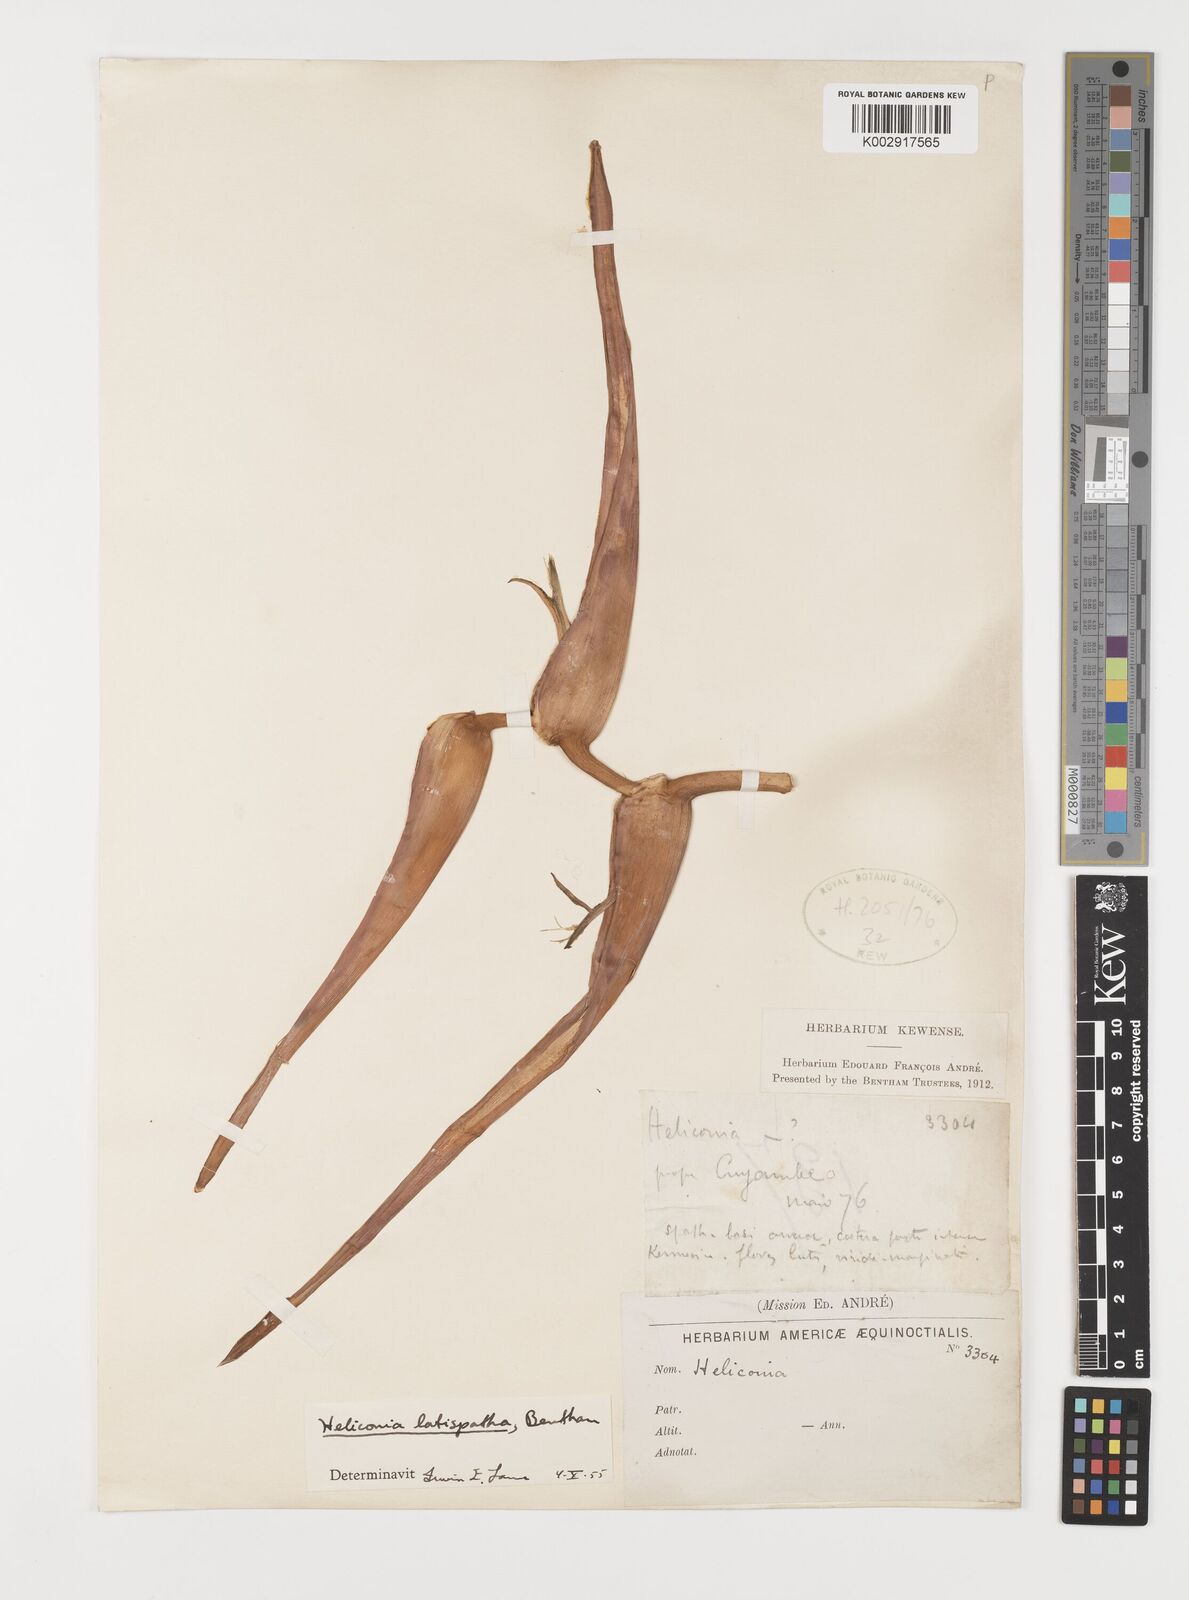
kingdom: Plantae
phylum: Tracheophyta
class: Liliopsida
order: Zingiberales
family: Heliconiaceae
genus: Heliconia
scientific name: Heliconia latispatha
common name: Expanded lobsterclaw
